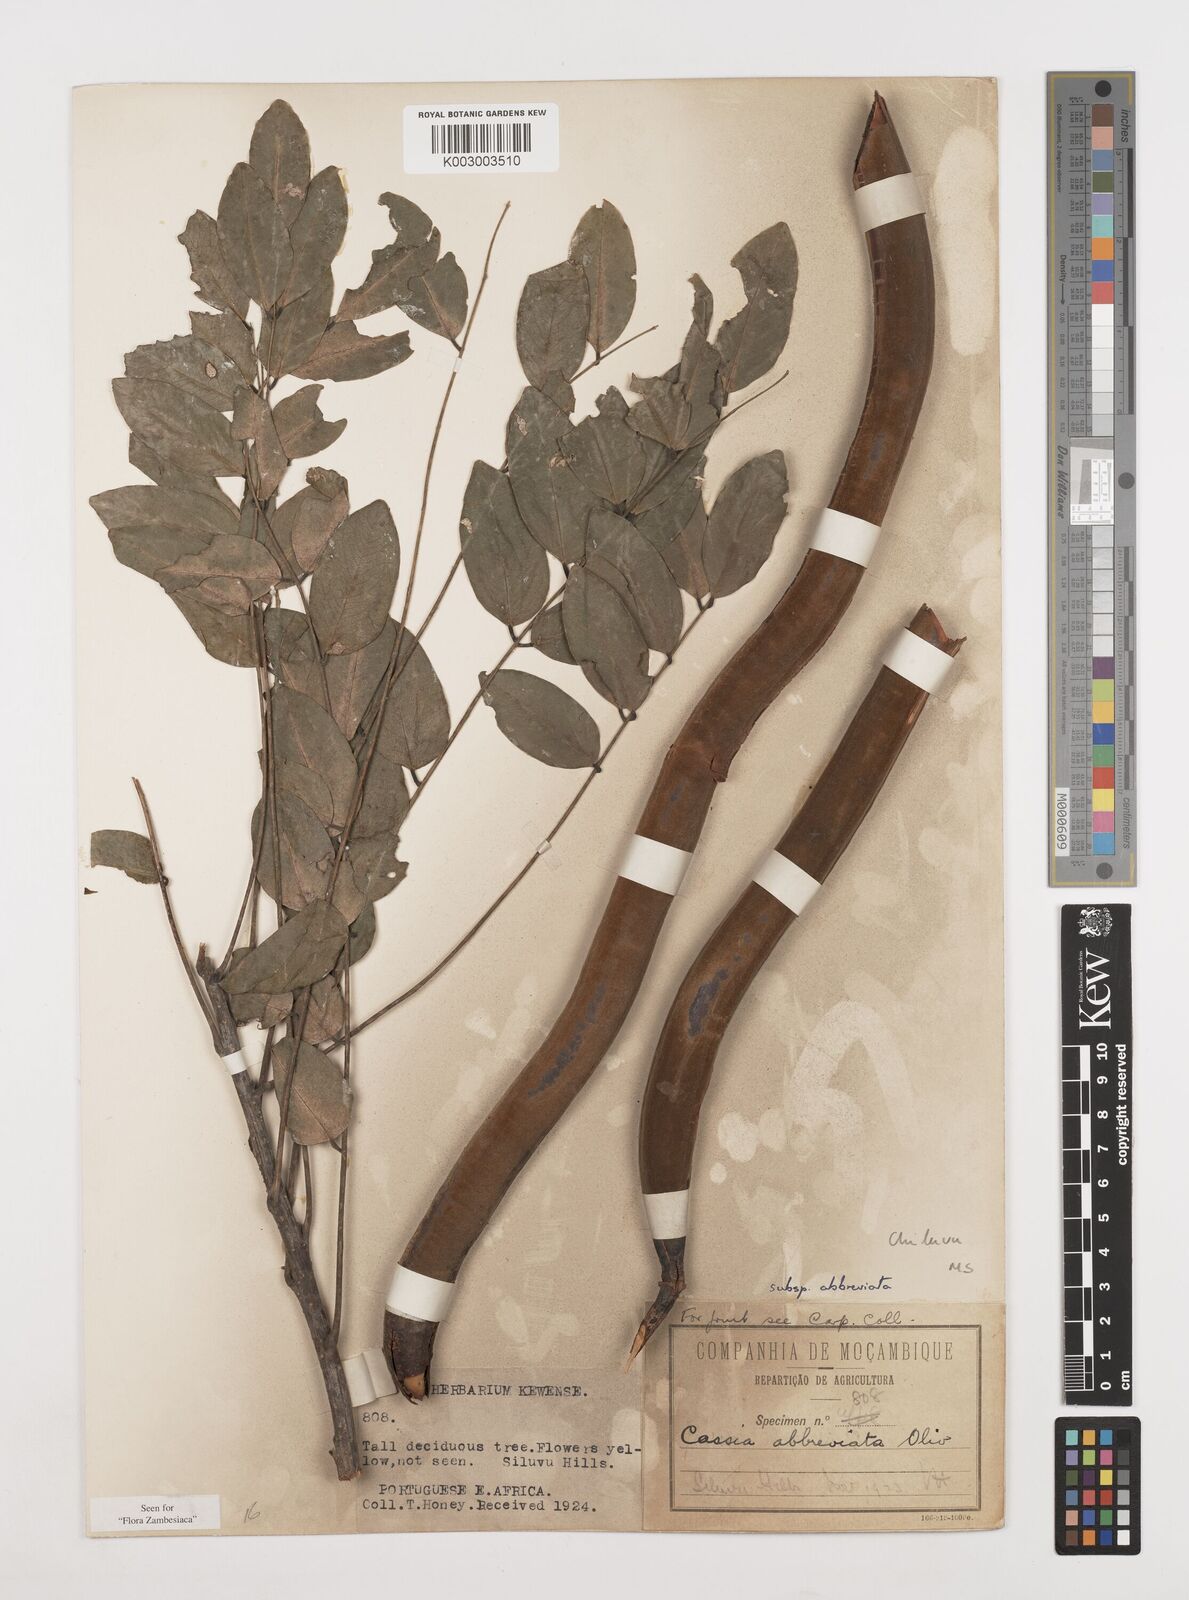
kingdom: Plantae
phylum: Tracheophyta
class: Magnoliopsida
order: Fabales
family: Fabaceae
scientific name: Fabaceae
